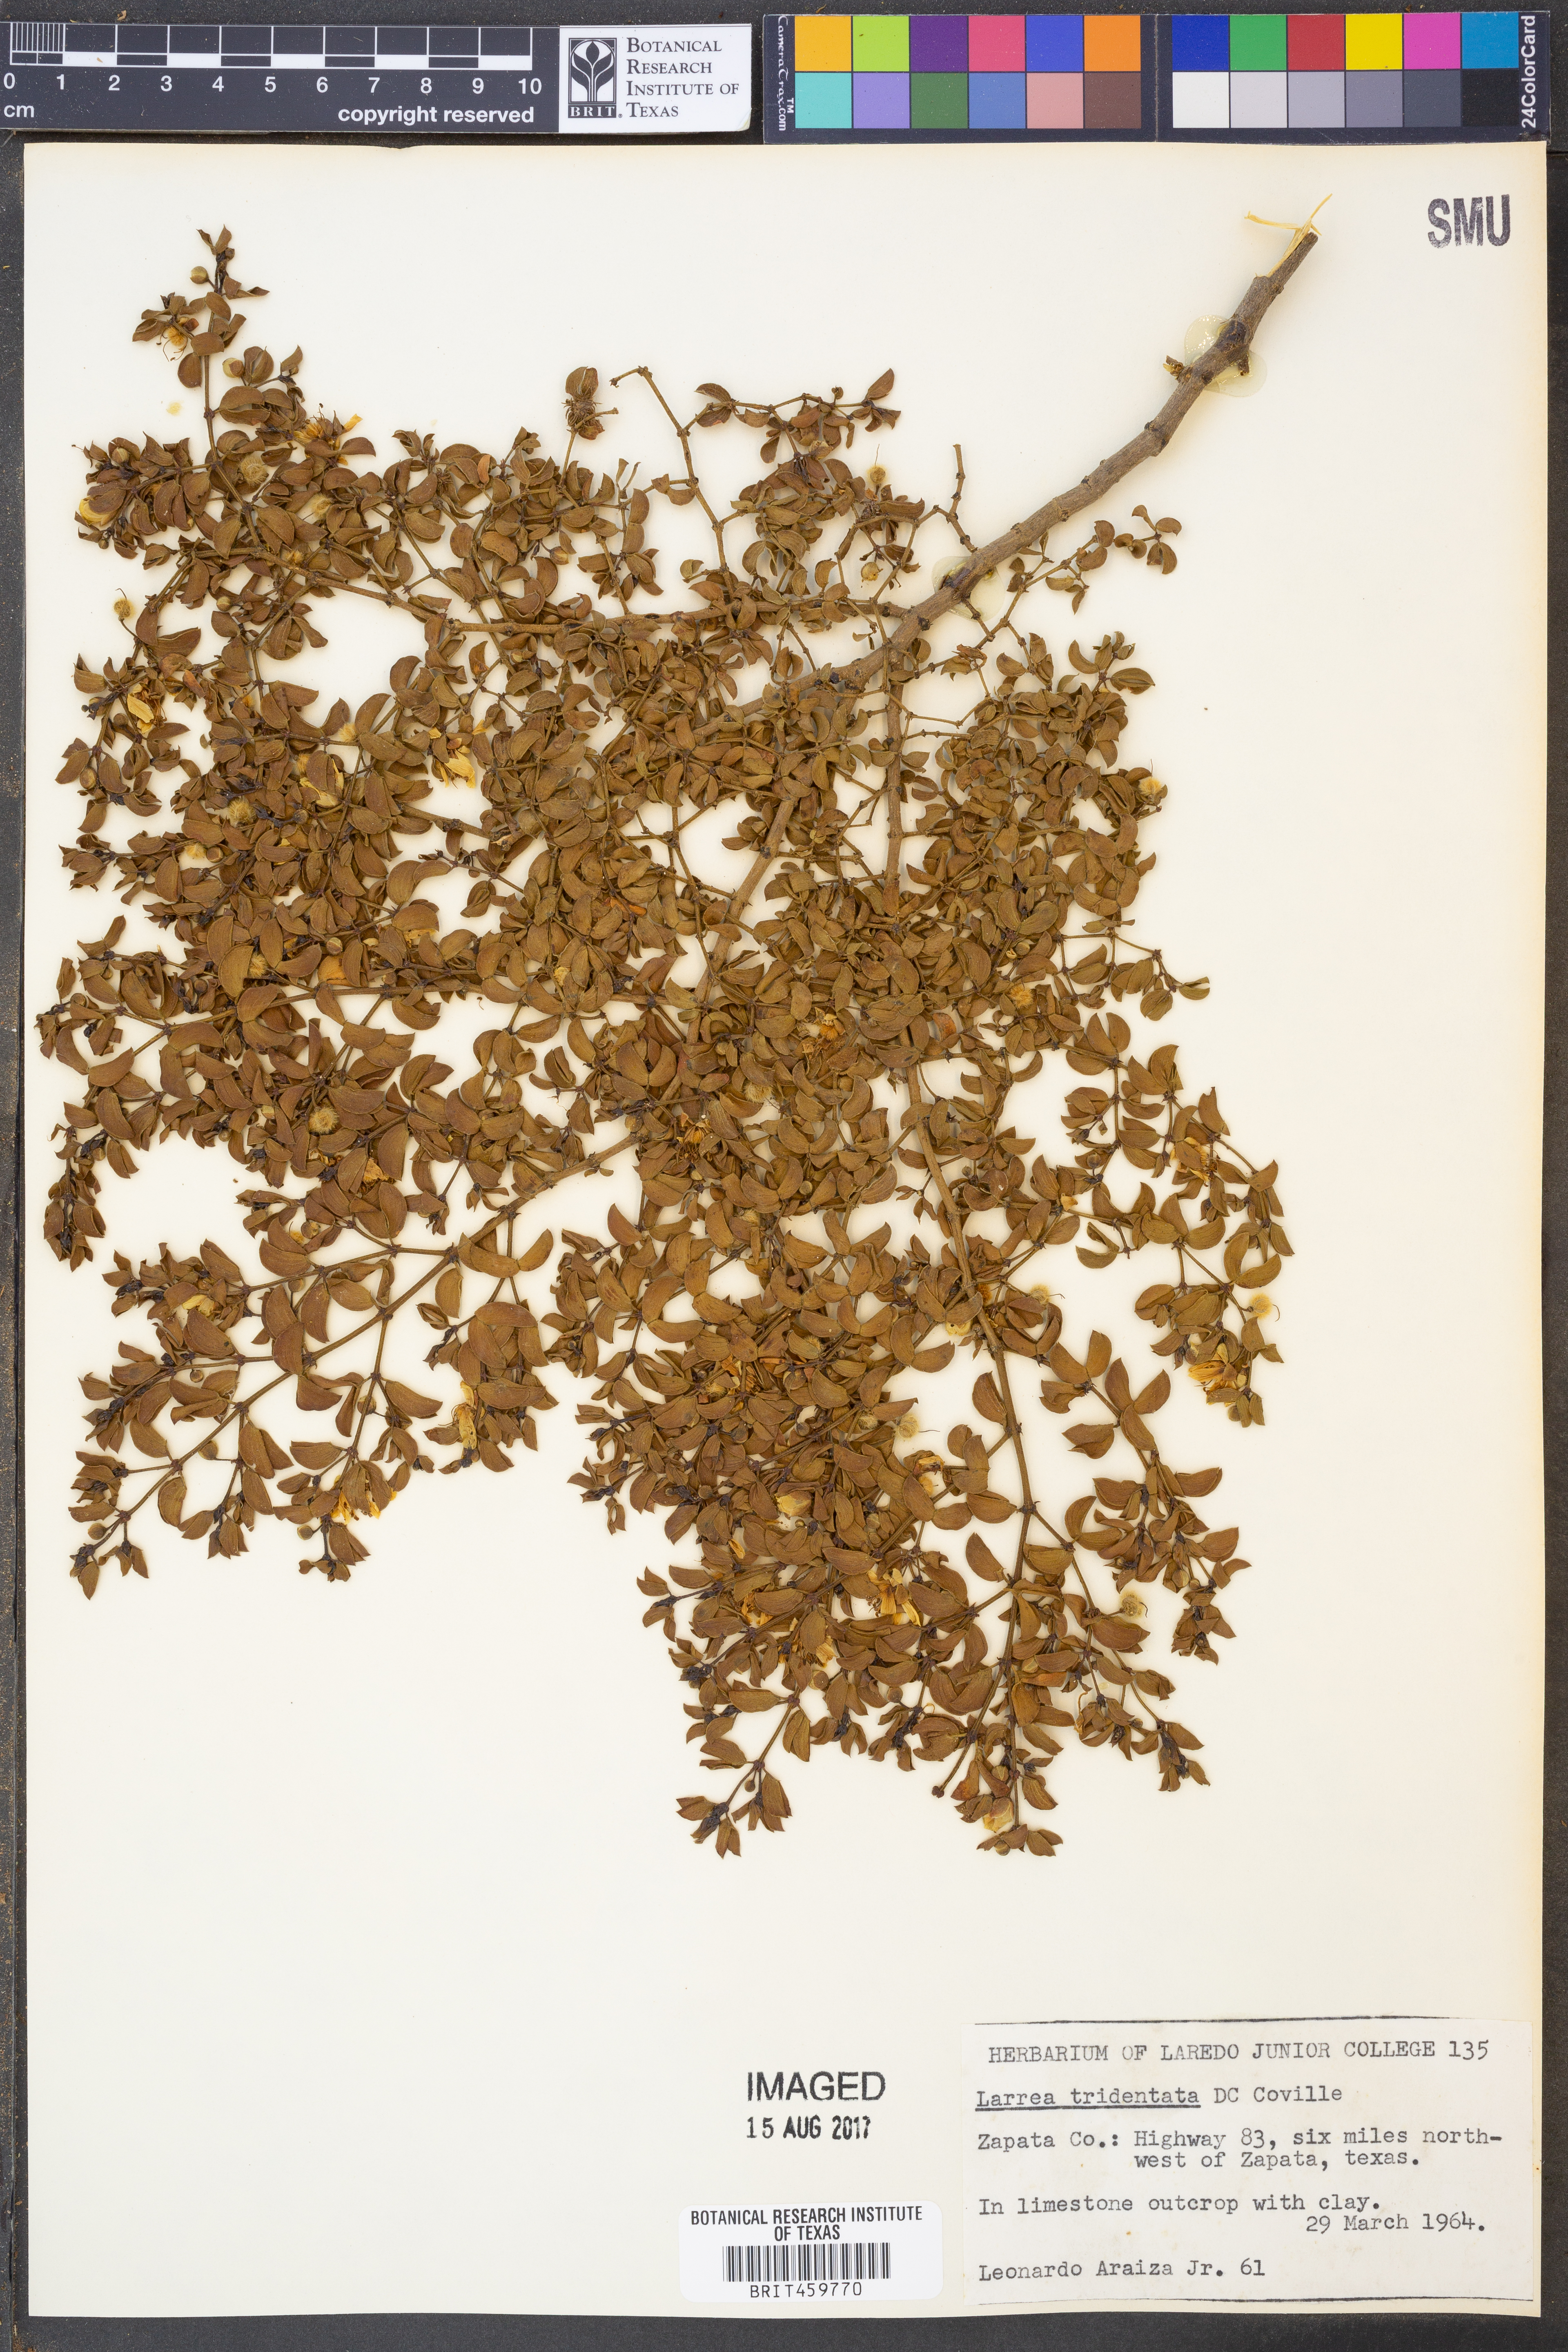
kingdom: Plantae
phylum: Tracheophyta
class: Magnoliopsida
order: Zygophyllales
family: Zygophyllaceae
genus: Larrea
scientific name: Larrea tridentata
